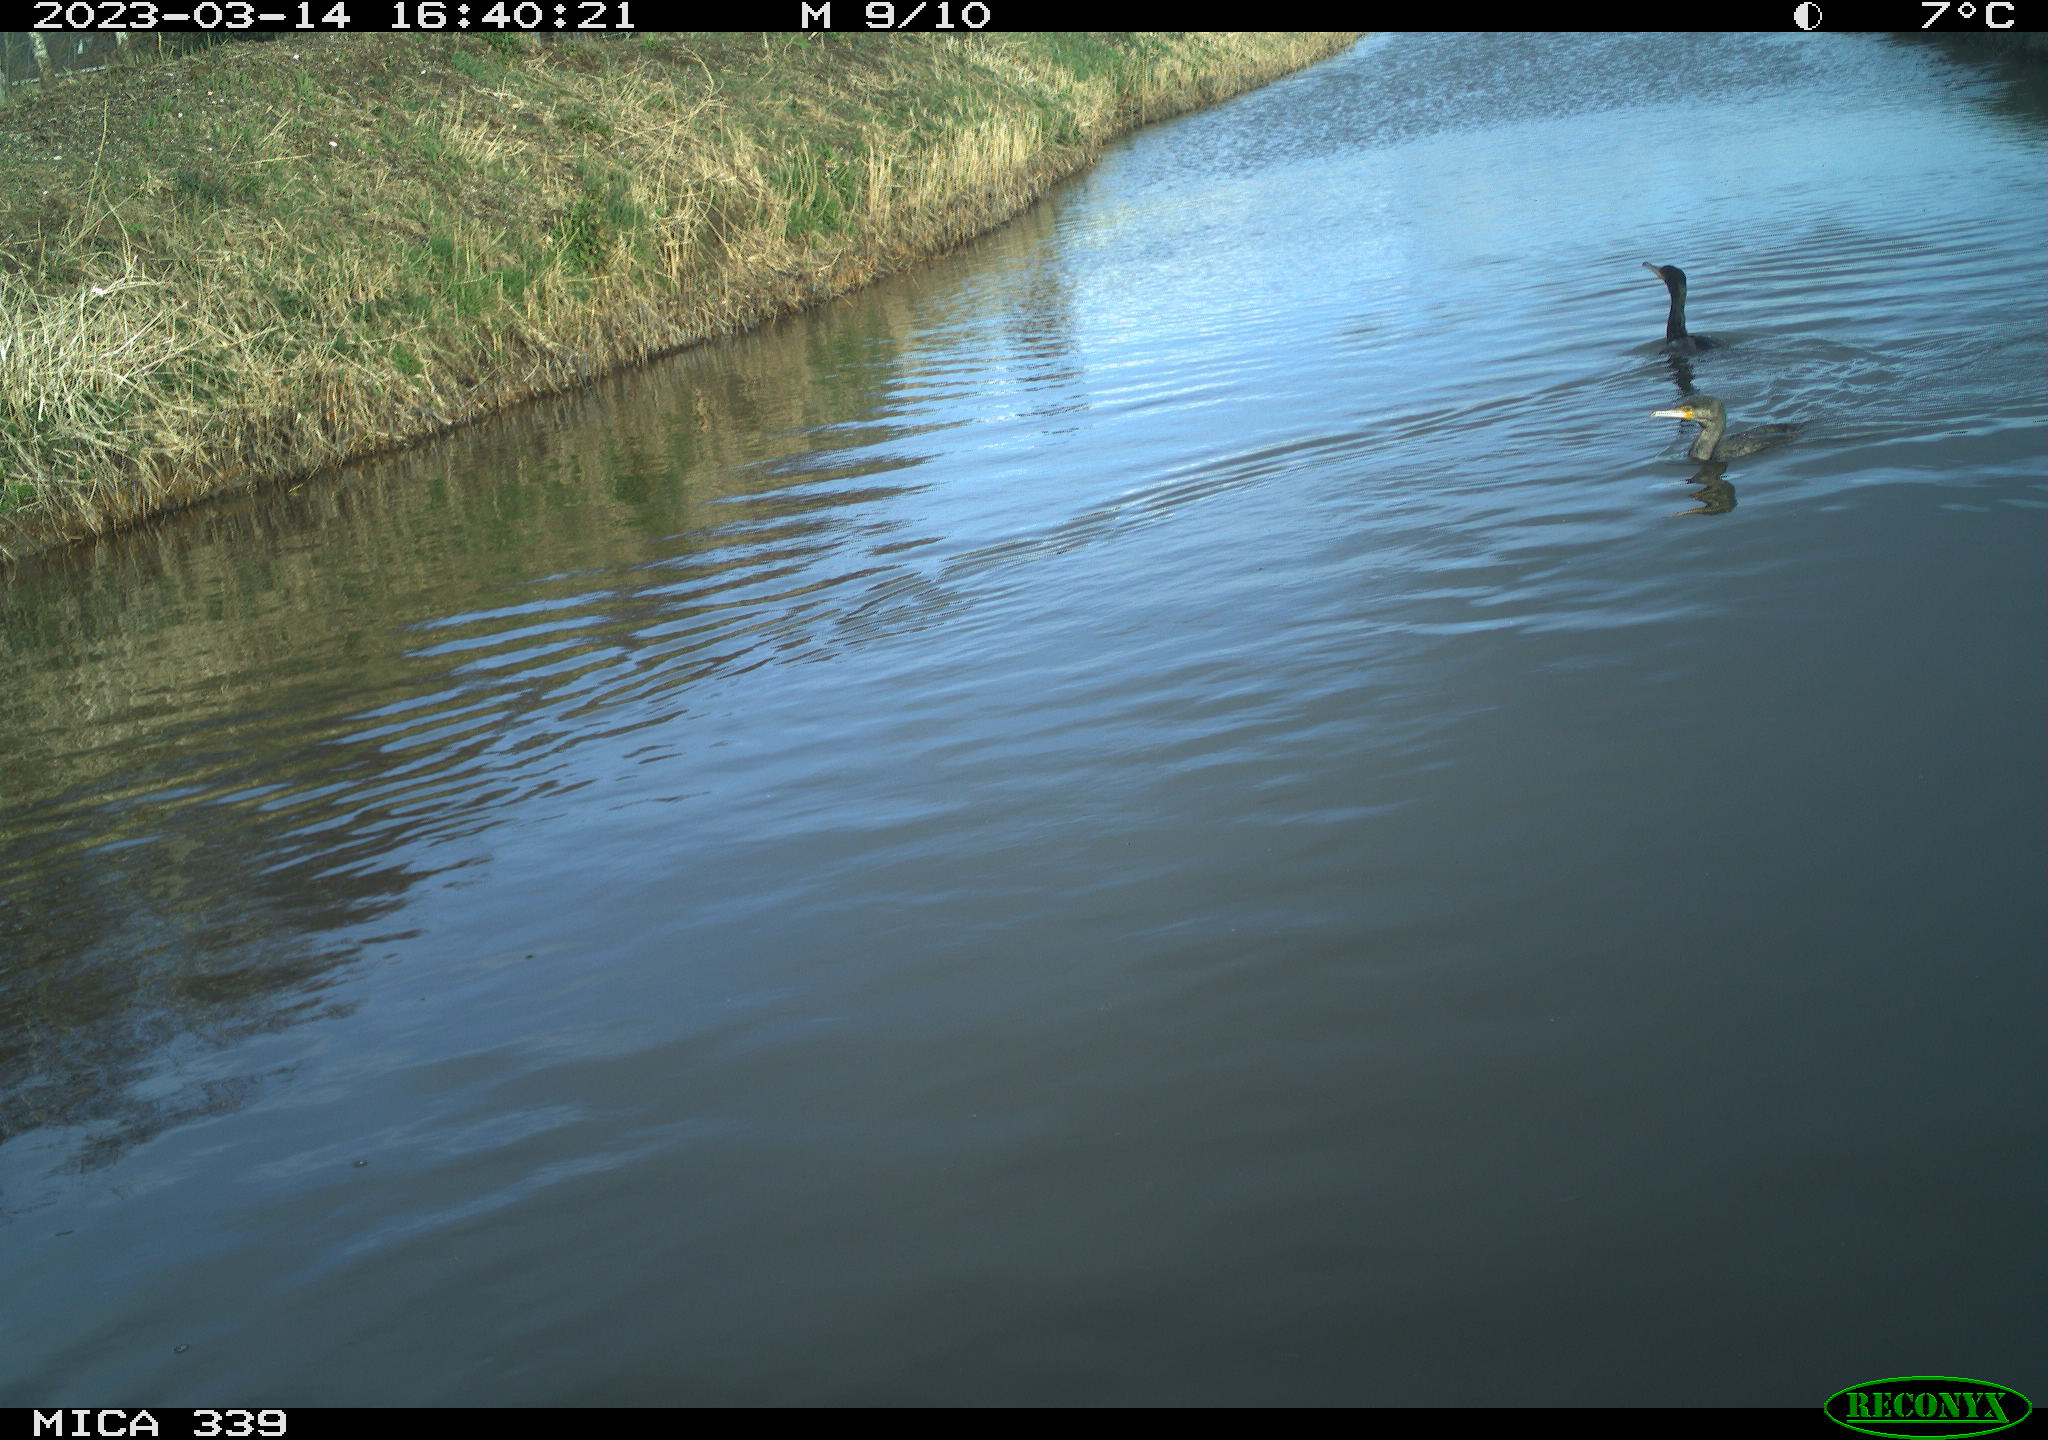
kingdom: Animalia
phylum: Chordata
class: Aves
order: Pelecaniformes
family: Ardeidae
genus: Ardea
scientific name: Ardea cinerea
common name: Grey heron
